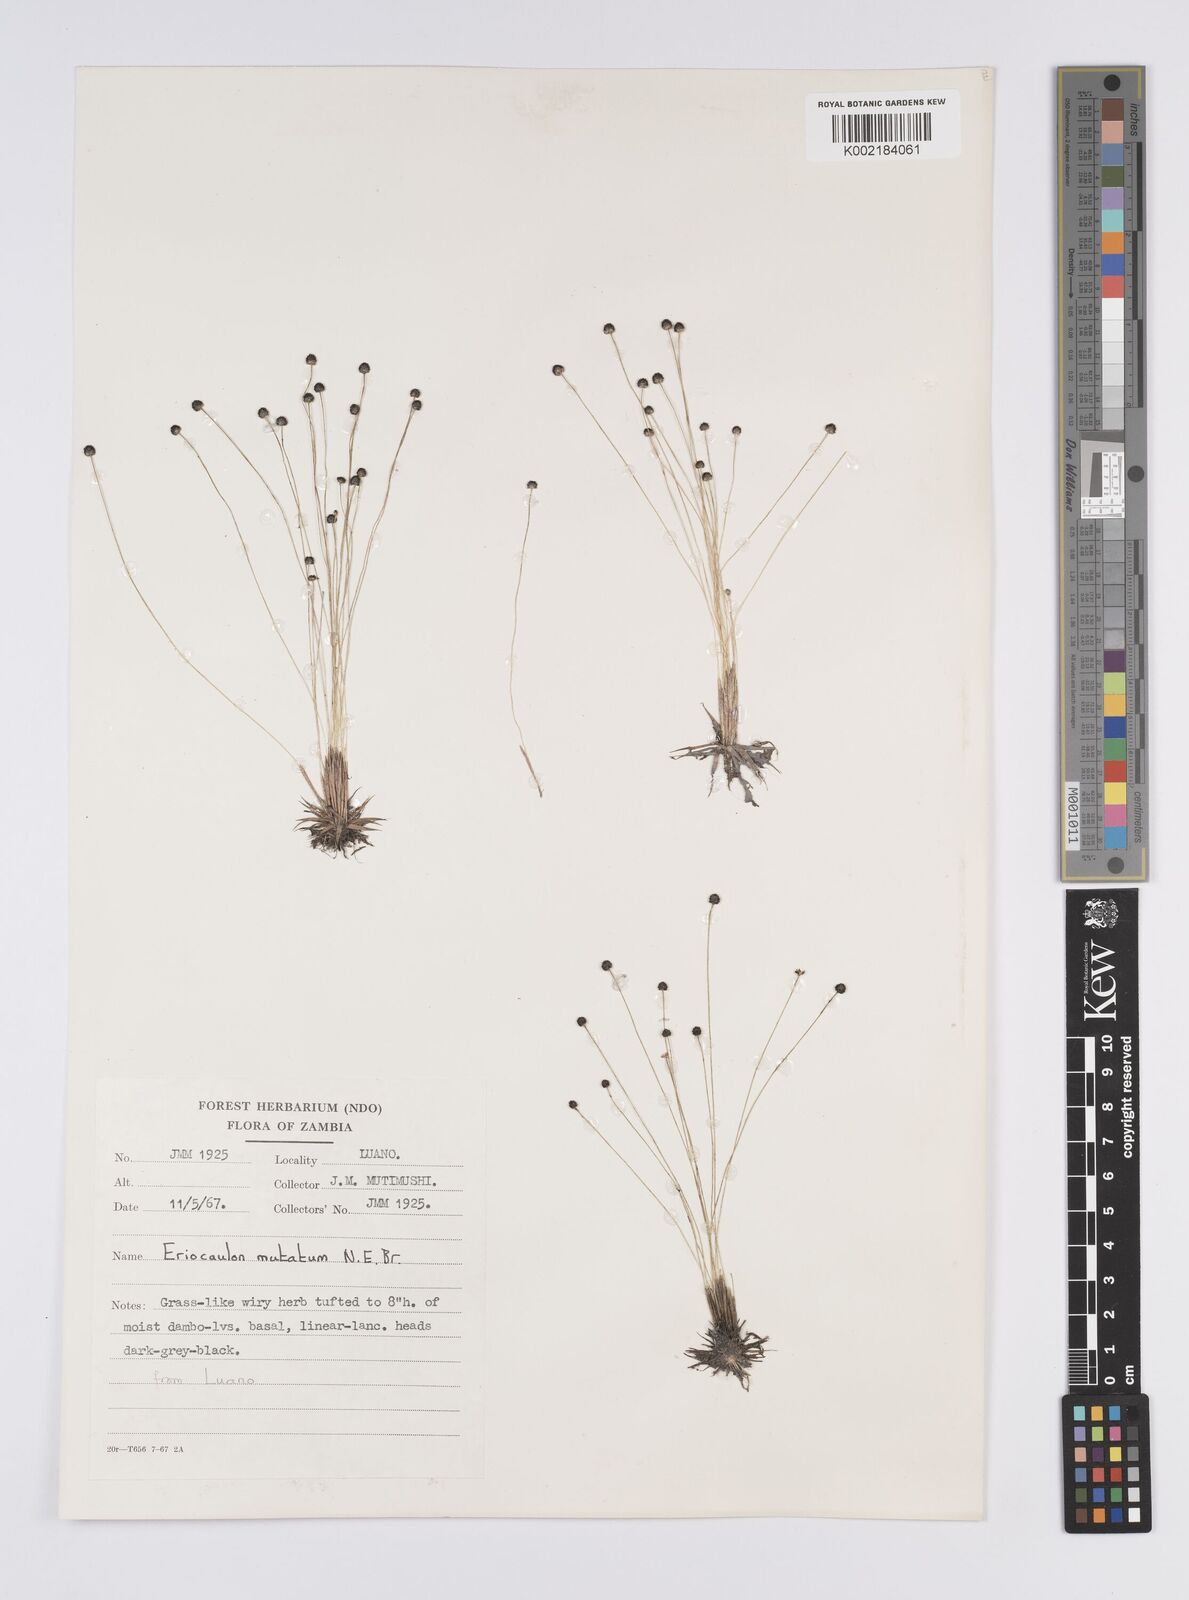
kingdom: Plantae
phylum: Tracheophyta
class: Liliopsida
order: Poales
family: Eriocaulaceae
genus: Eriocaulon
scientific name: Eriocaulon mutatum
